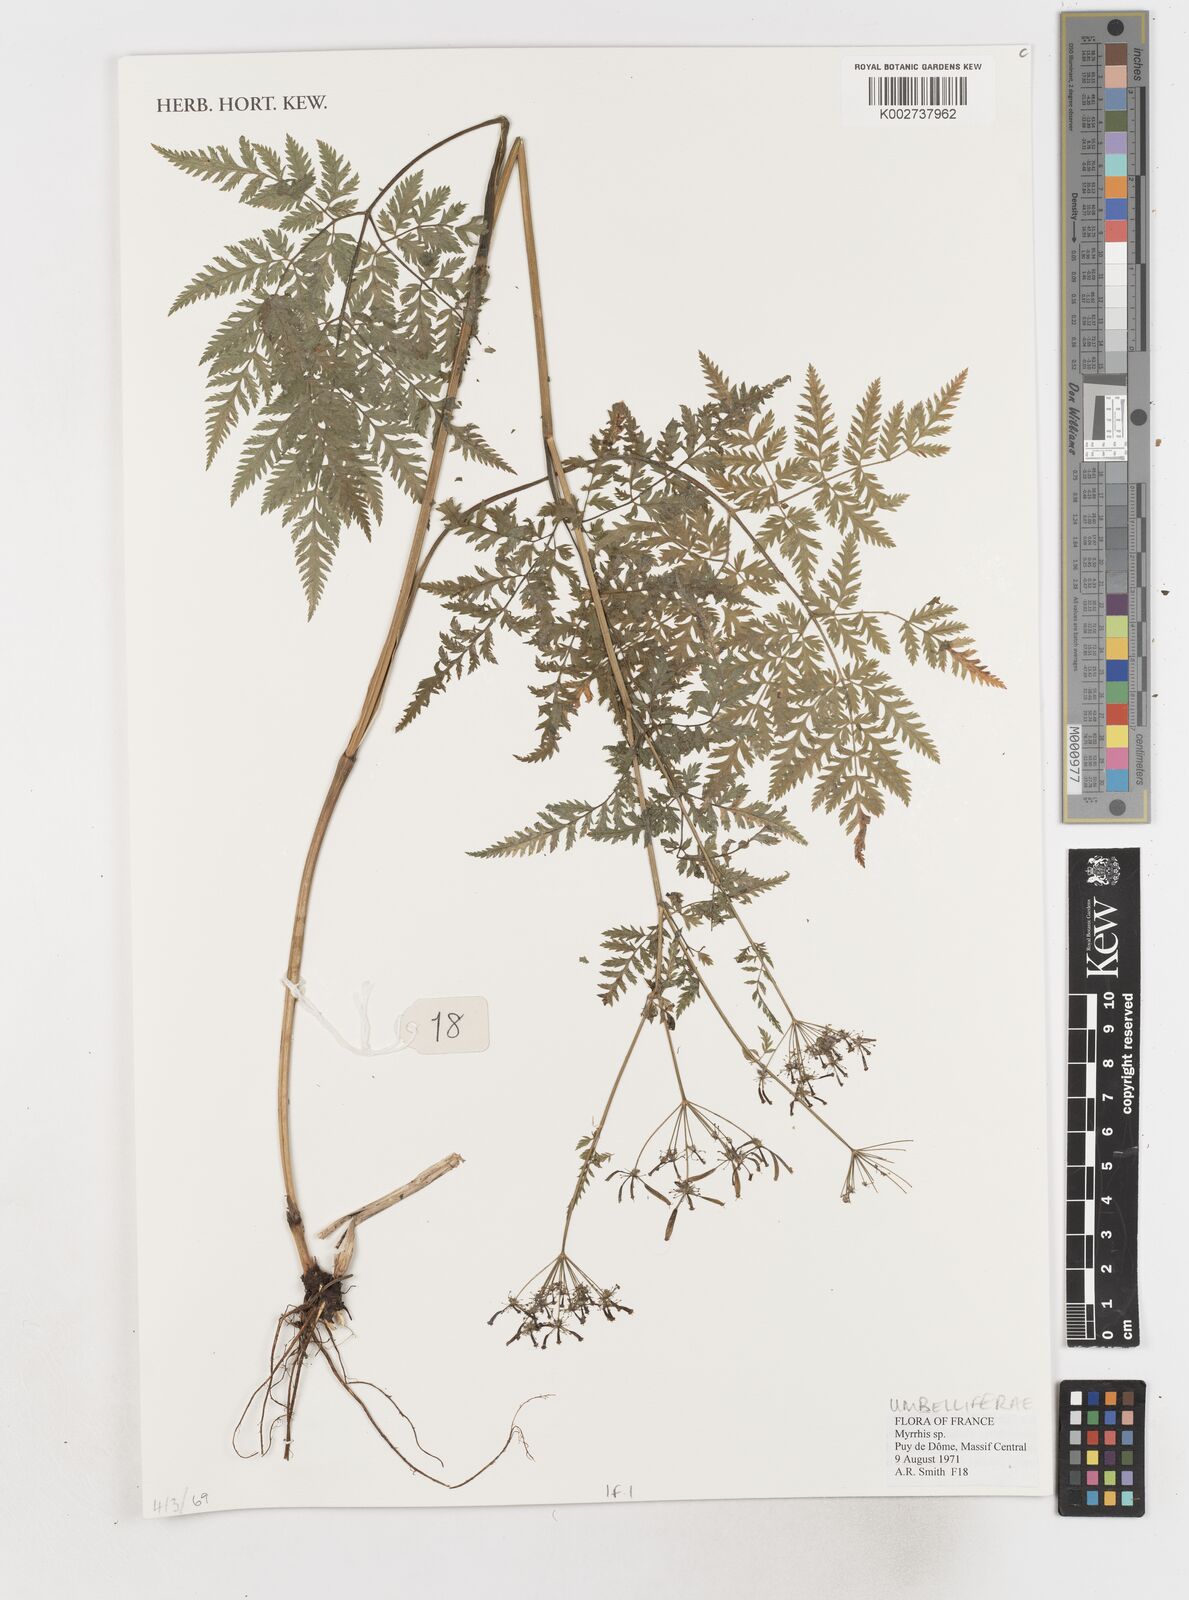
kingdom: Plantae
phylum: Tracheophyta
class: Magnoliopsida
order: Apiales
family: Apiaceae
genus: Myrrhis
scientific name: Myrrhis
